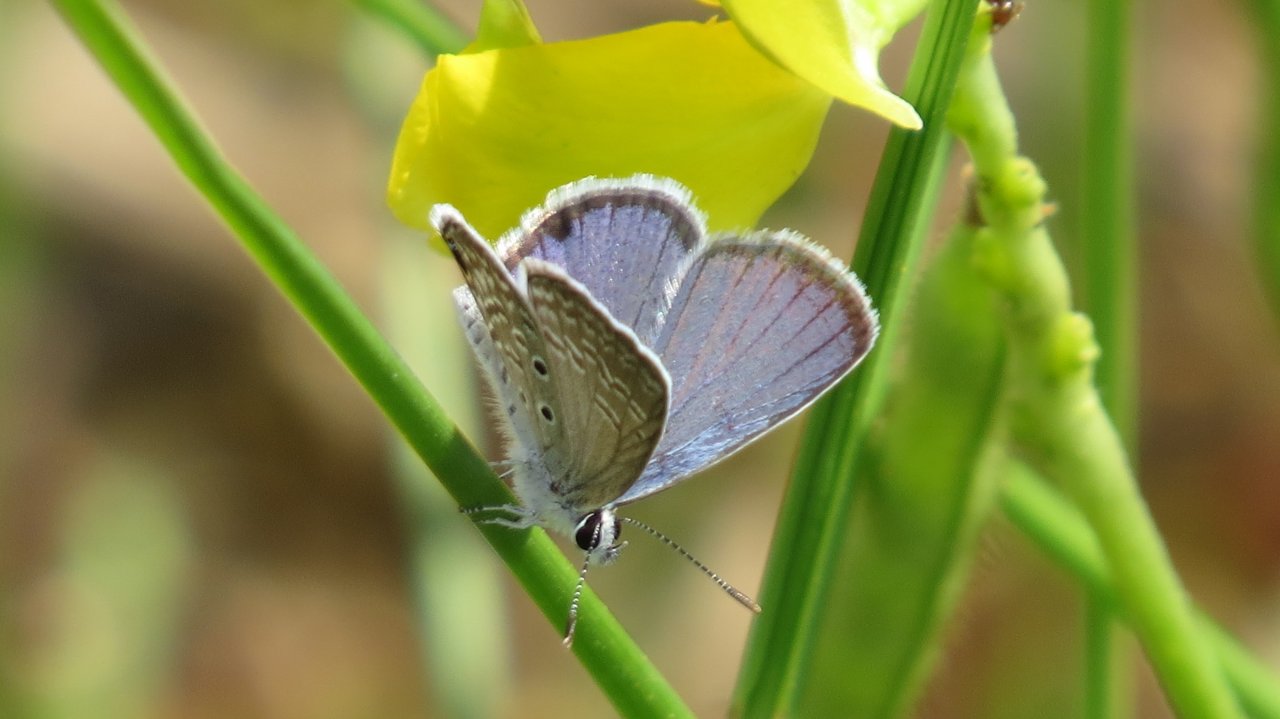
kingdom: Animalia
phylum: Arthropoda
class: Insecta
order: Lepidoptera
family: Lycaenidae
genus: Hemiargus
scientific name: Hemiargus ceraunus
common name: Ceraunus Blue
